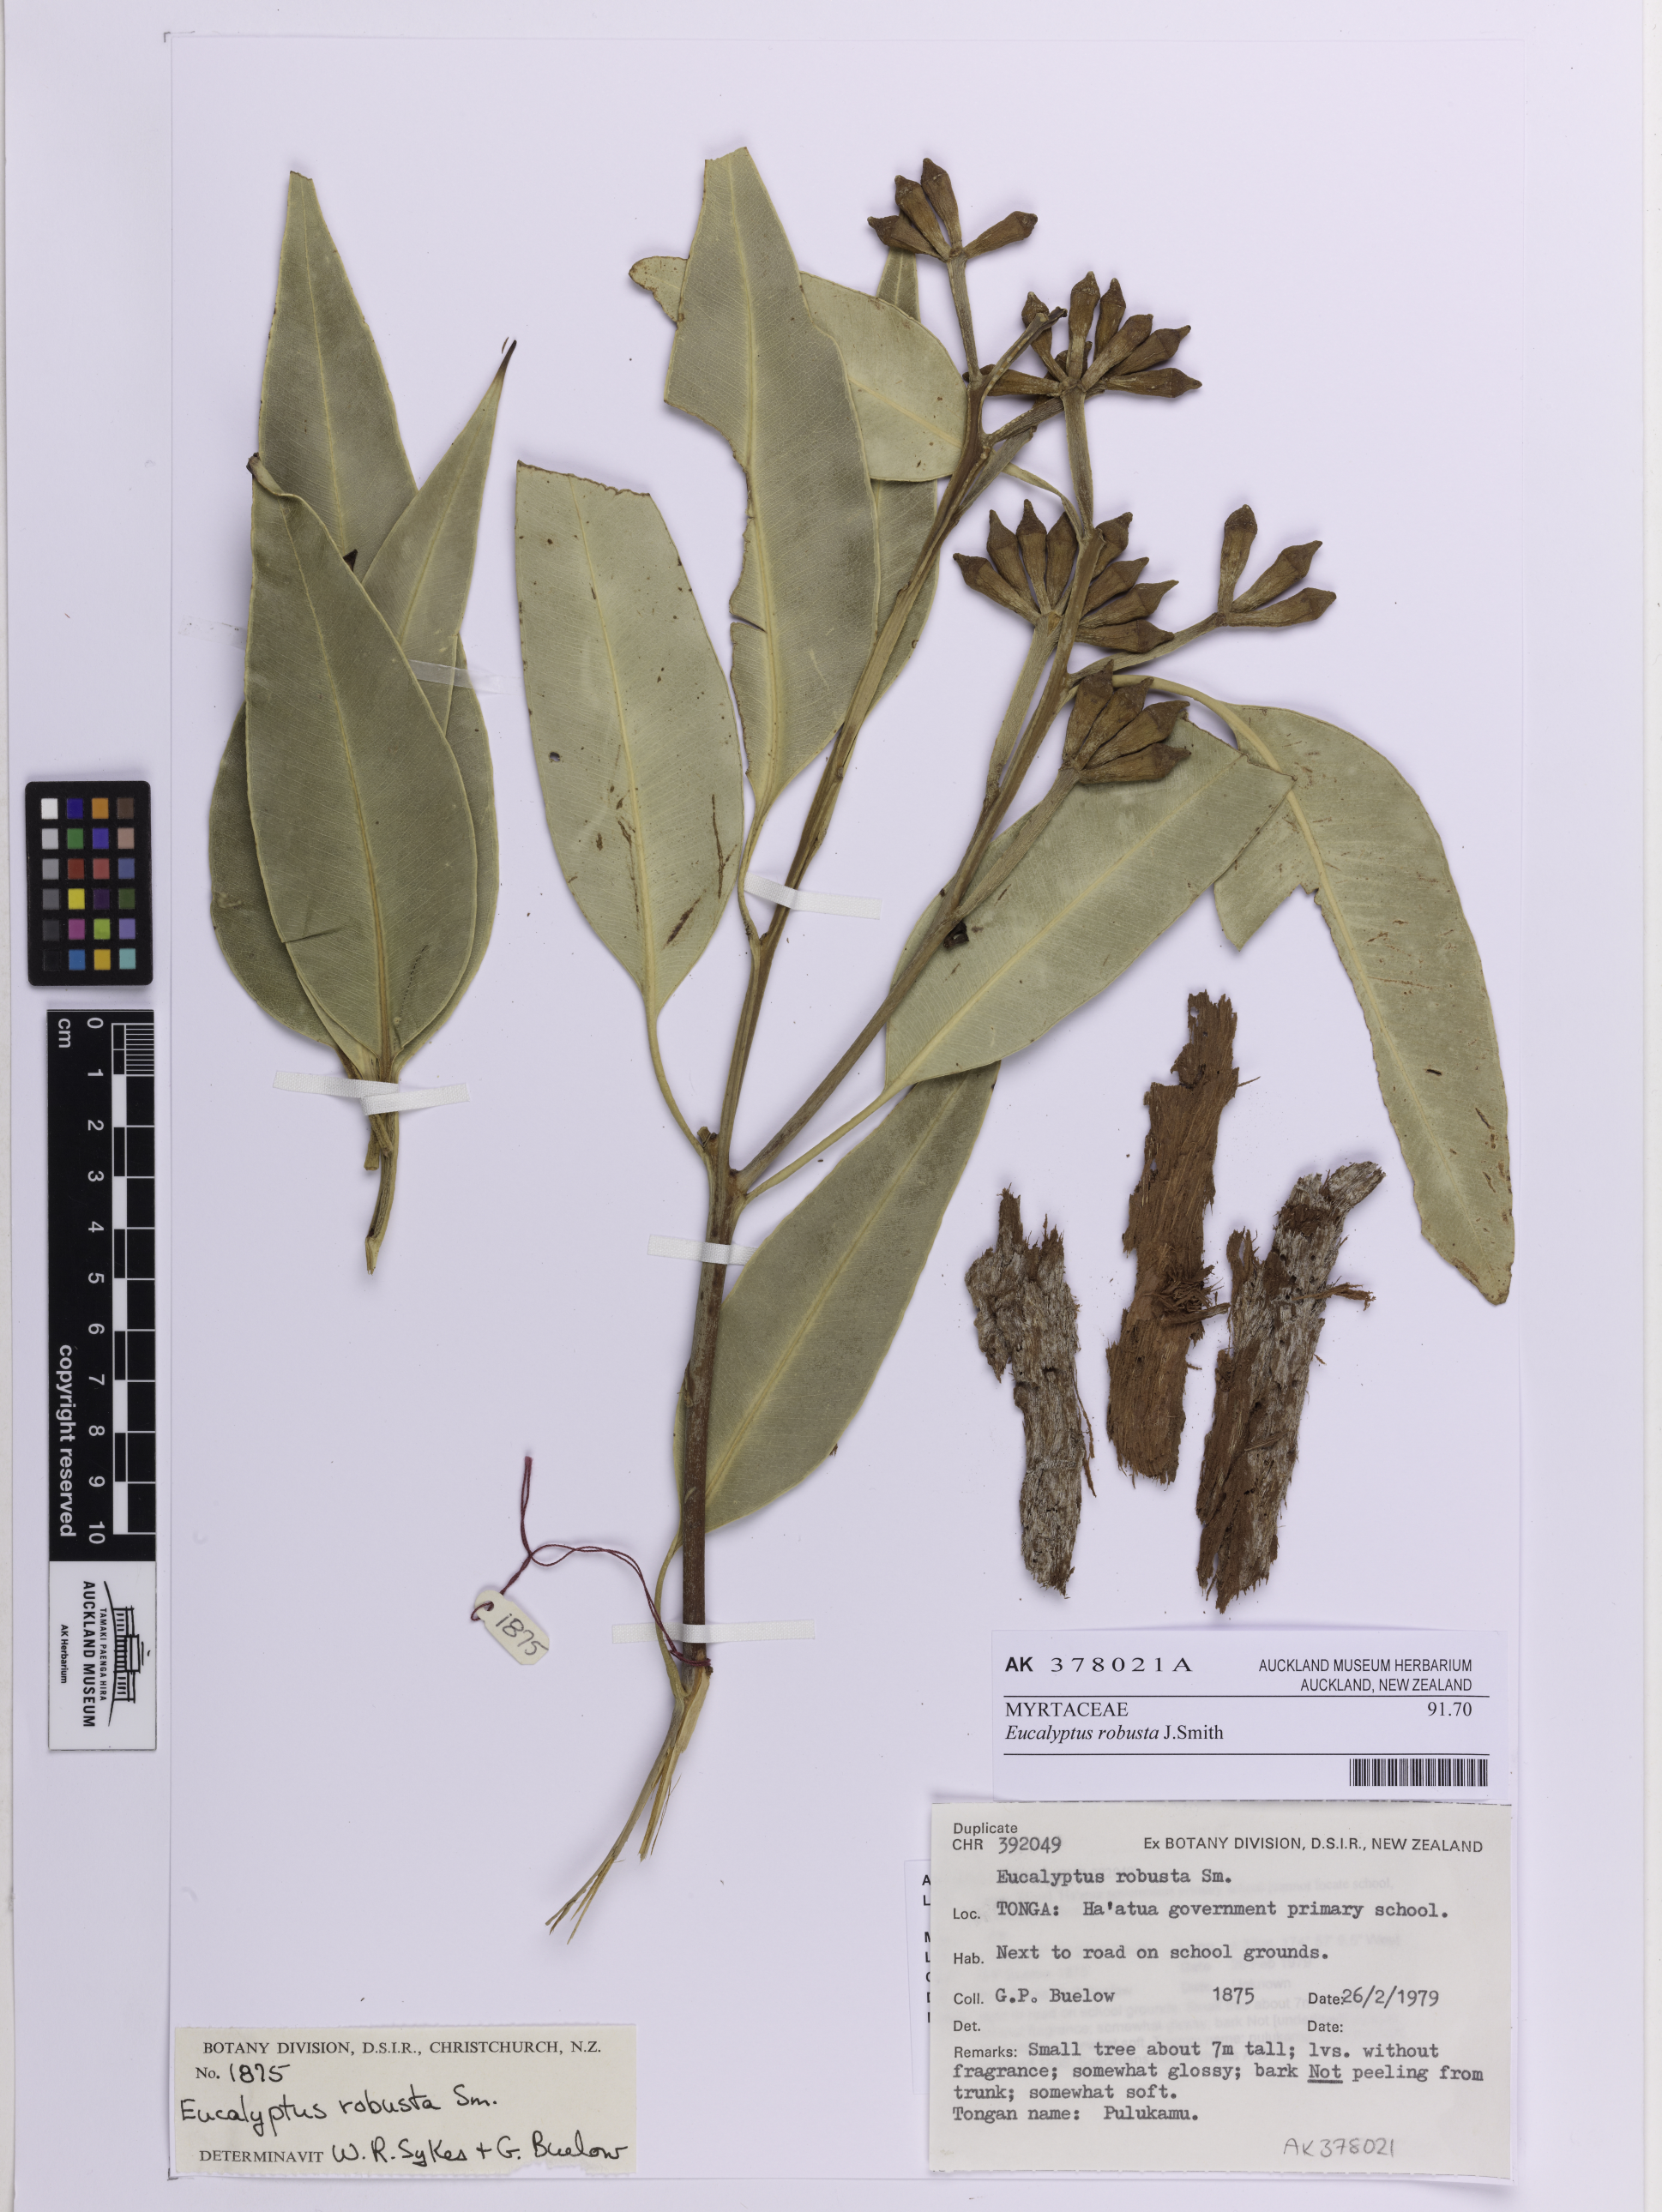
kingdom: Plantae
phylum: Tracheophyta
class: Magnoliopsida
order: Myrtales
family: Myrtaceae
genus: Eucalyptus
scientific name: Eucalyptus robusta
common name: Swampmahogany
